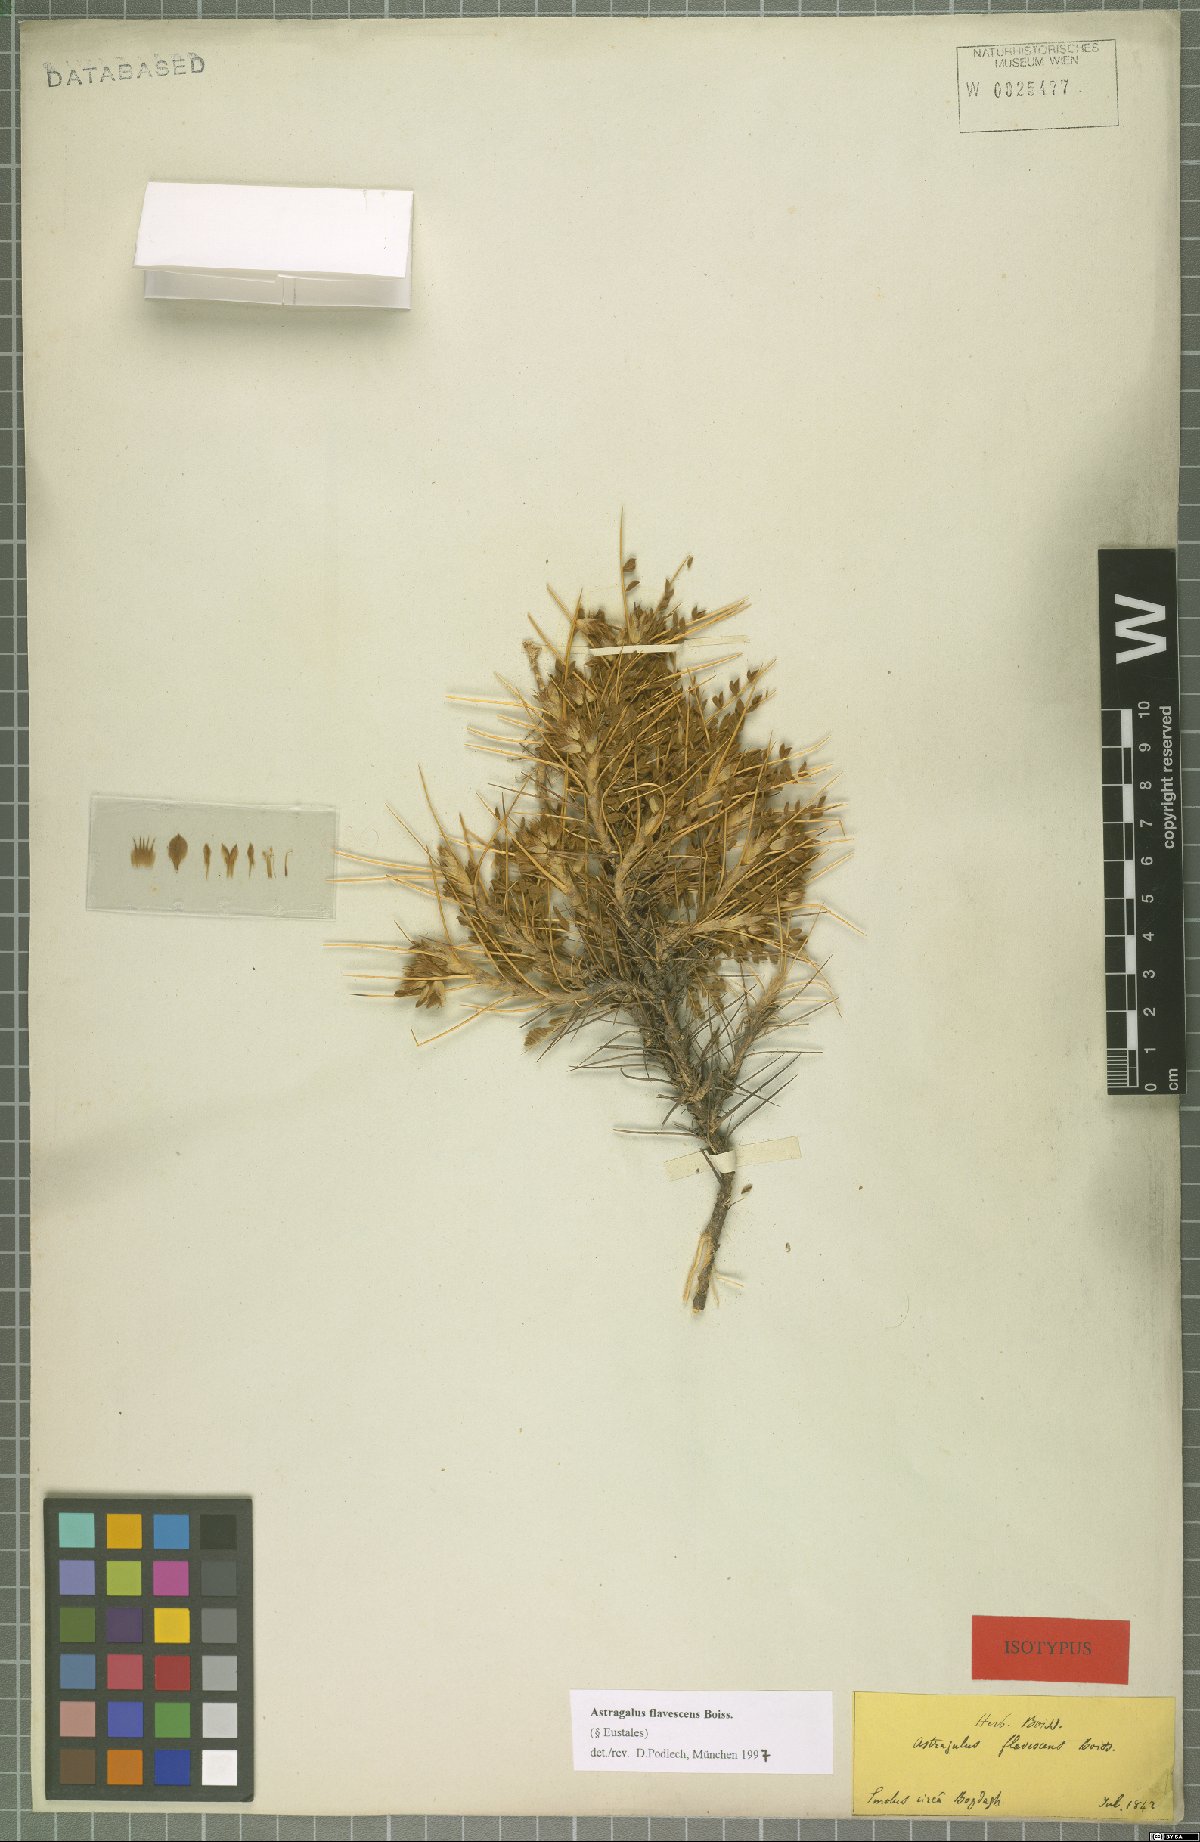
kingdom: Plantae
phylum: Tracheophyta
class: Magnoliopsida
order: Fabales
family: Fabaceae
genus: Astragalus
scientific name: Astragalus flavescens
